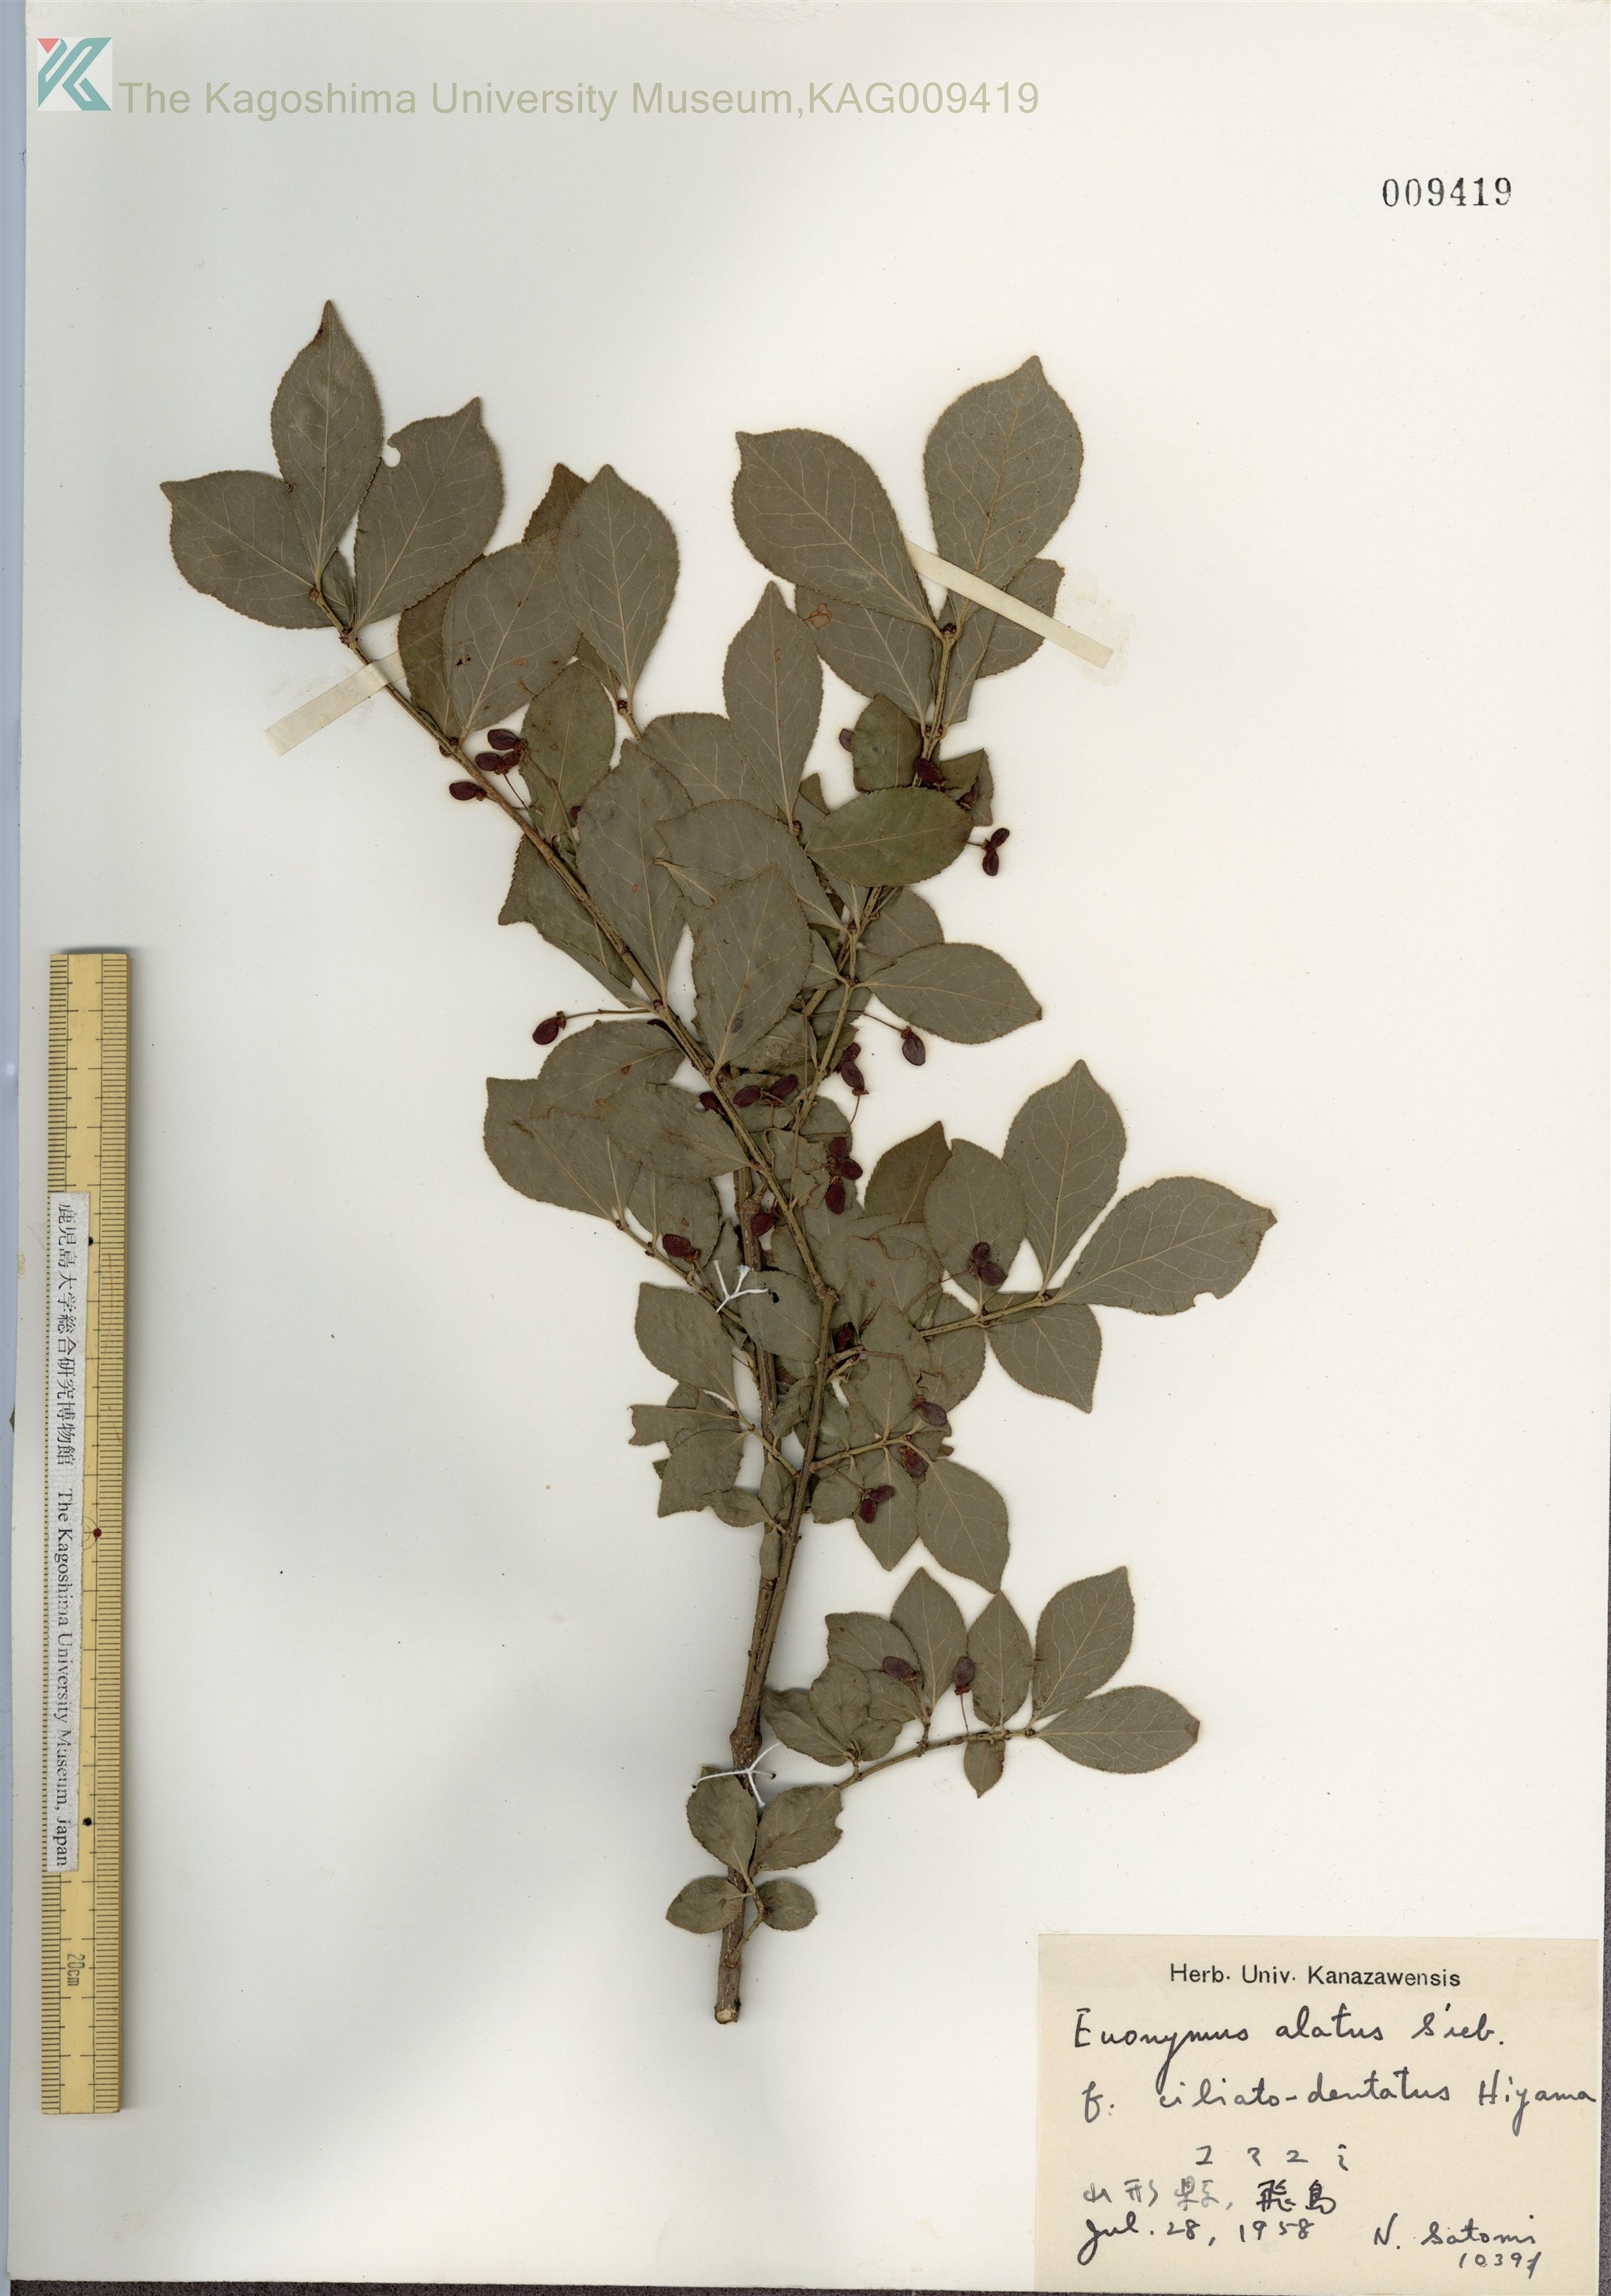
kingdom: Plantae
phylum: Tracheophyta
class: Magnoliopsida
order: Celastrales
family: Celastraceae
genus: Euonymus
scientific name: Euonymus alatus
